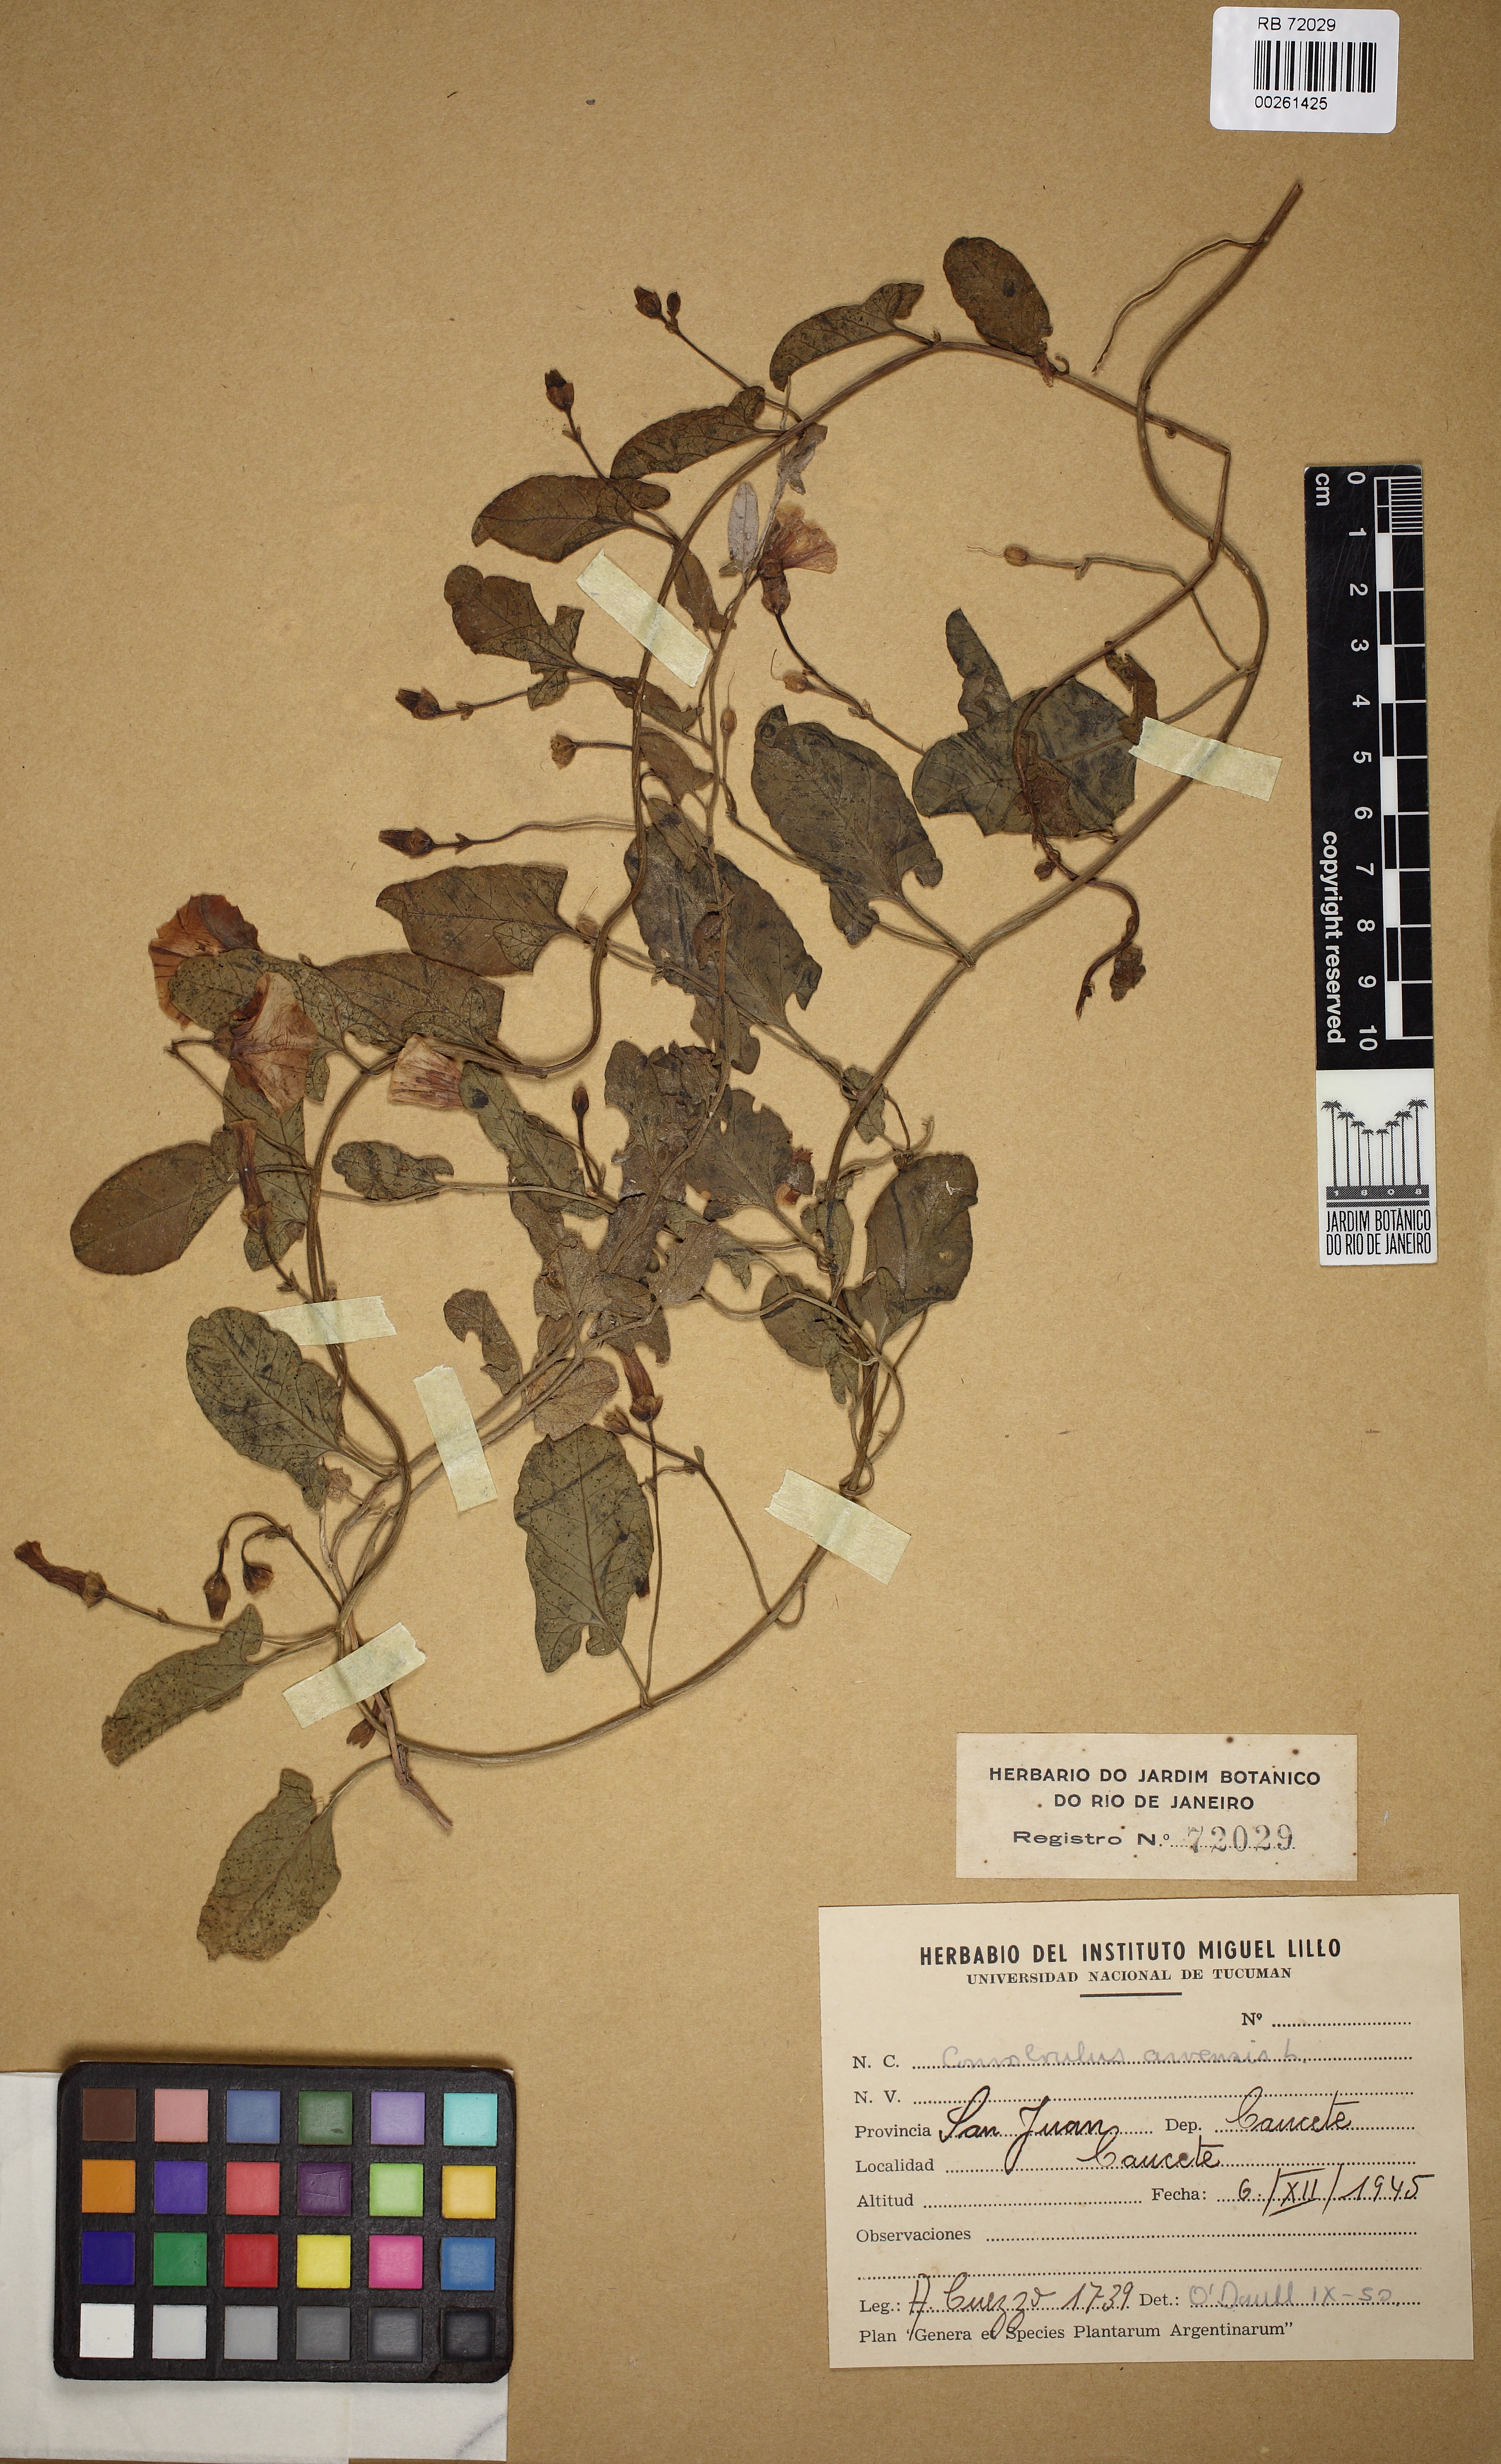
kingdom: Plantae
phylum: Tracheophyta
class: Magnoliopsida
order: Solanales
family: Convolvulaceae
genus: Convolvulus
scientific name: Convolvulus arvensis
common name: Field bindweed
